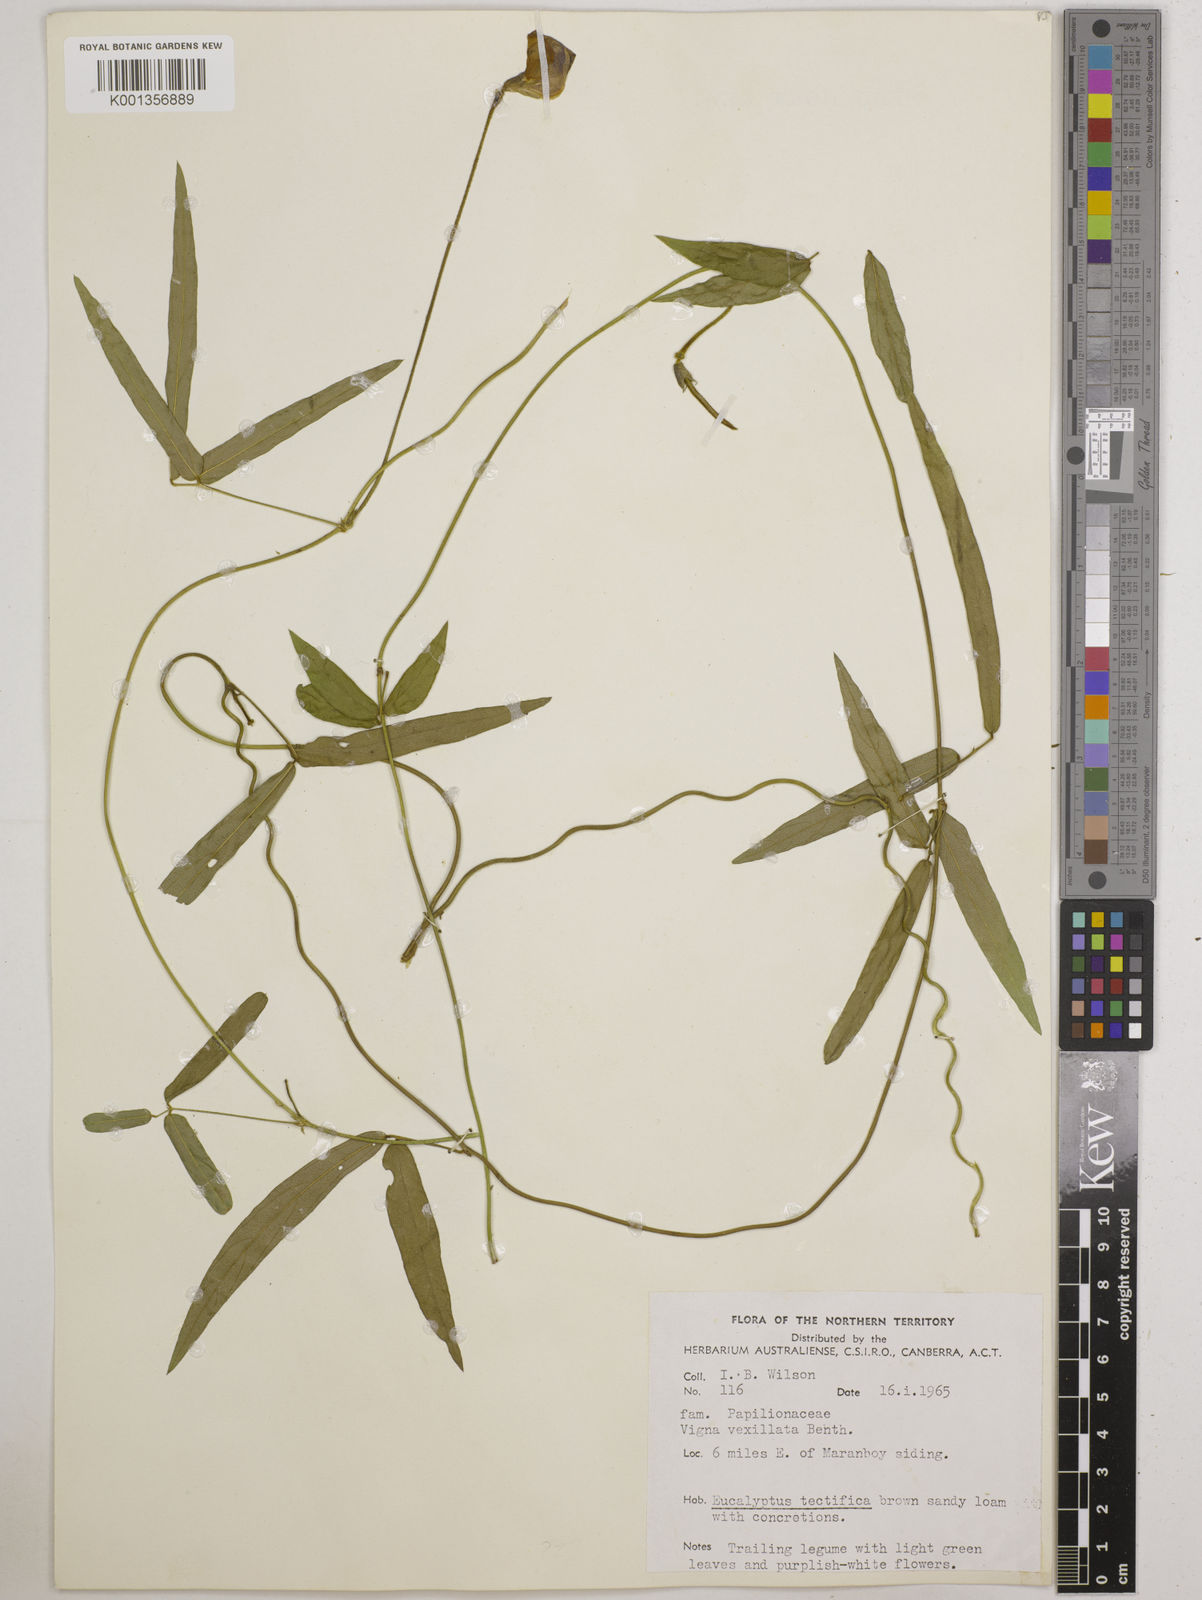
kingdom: Plantae
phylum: Tracheophyta
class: Magnoliopsida
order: Fabales
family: Fabaceae
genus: Vigna
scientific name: Vigna vexillata
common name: Zombi pea
